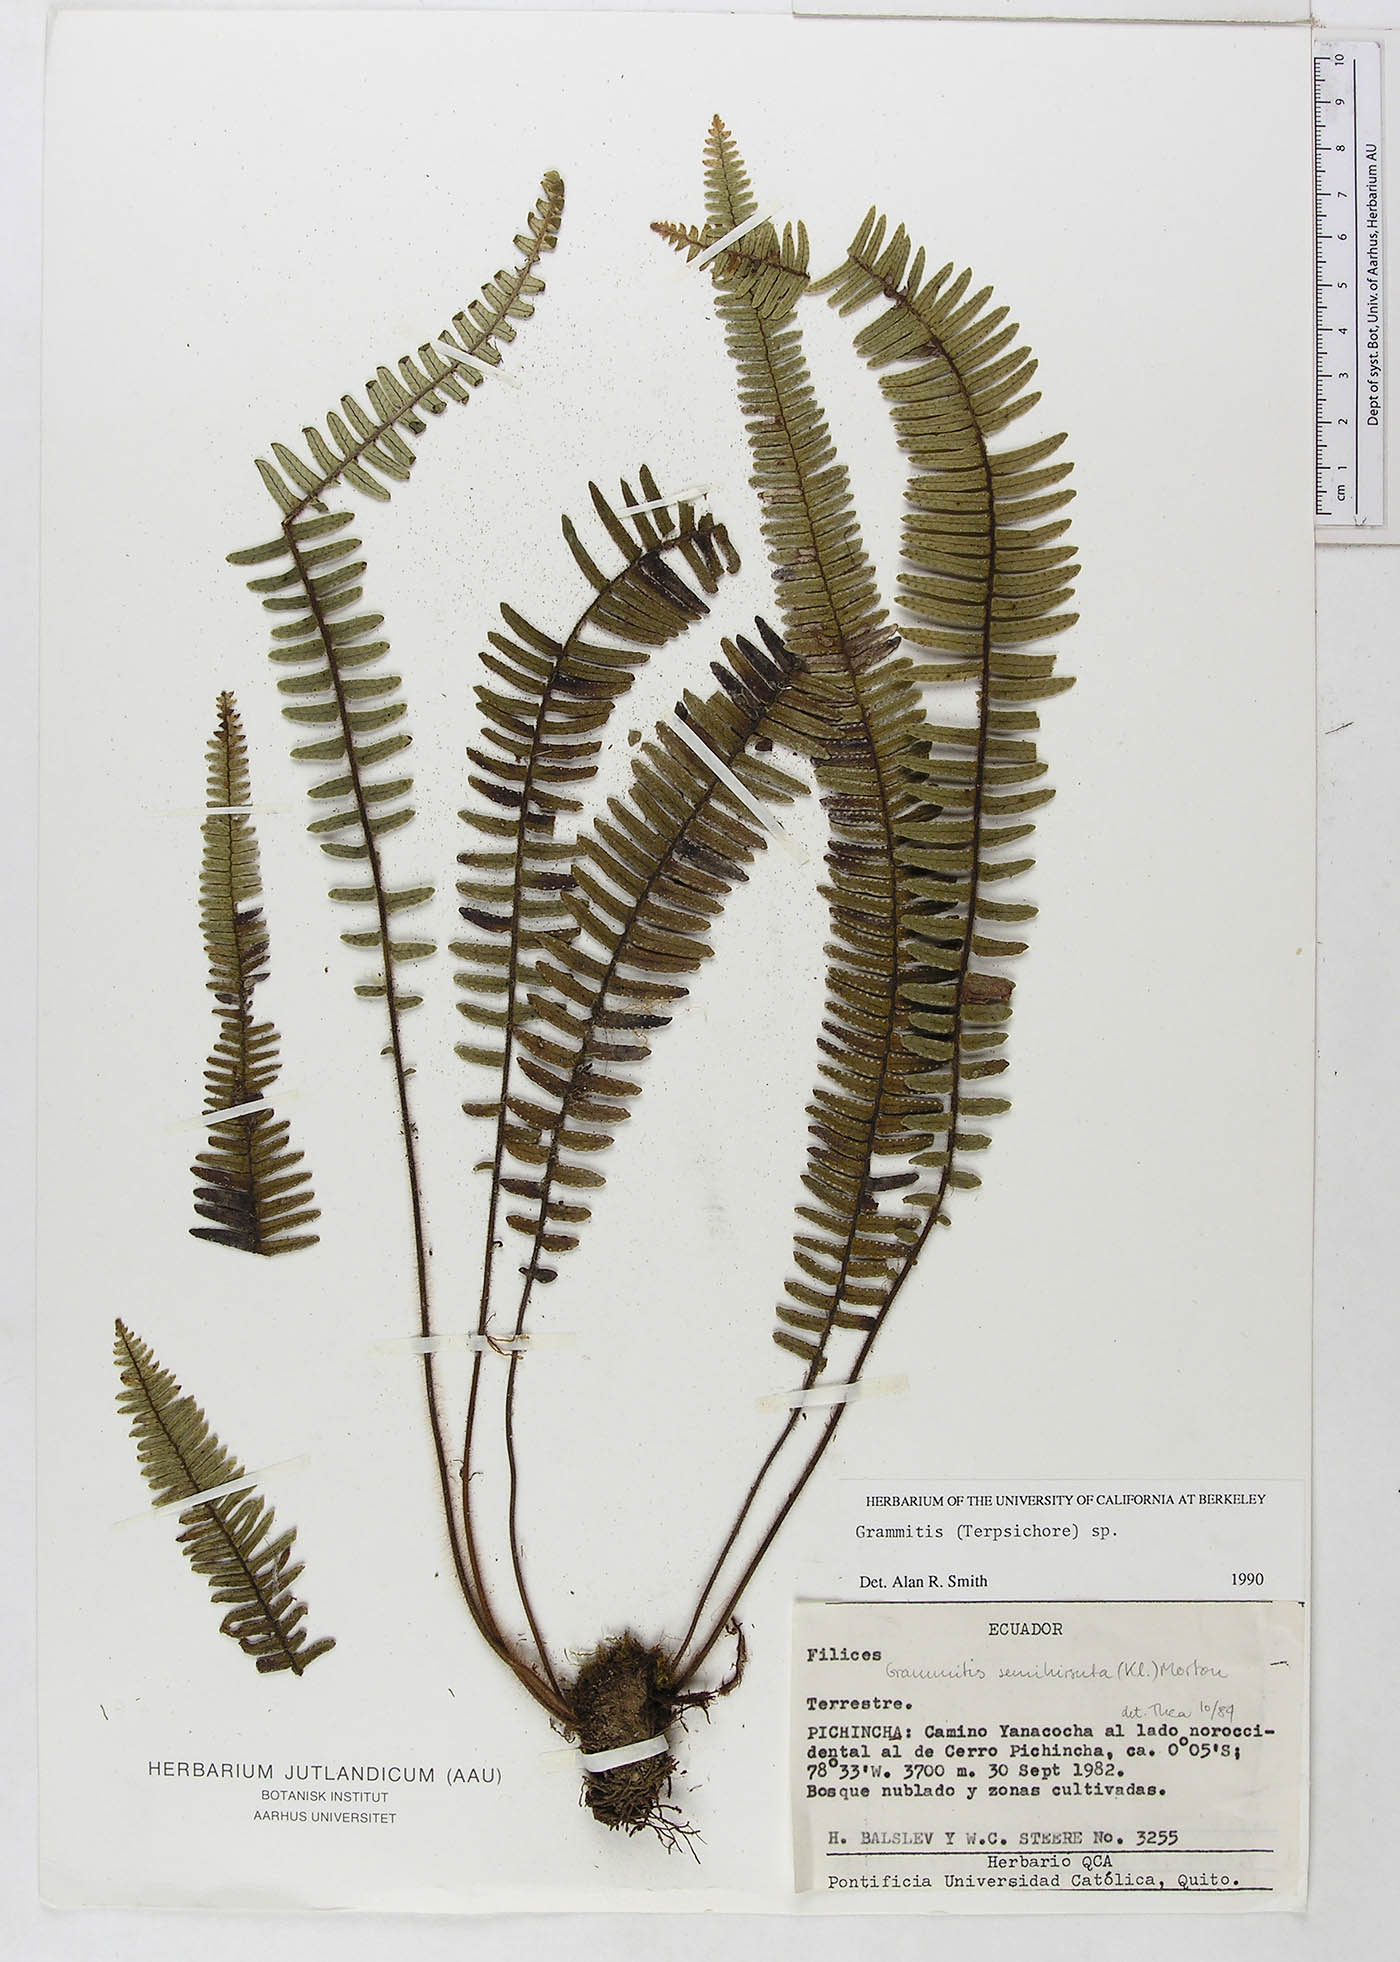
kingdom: Plantae
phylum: Tracheophyta
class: Polypodiopsida
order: Polypodiales
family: Polypodiaceae
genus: Mycopteris
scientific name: Mycopteris semihirsuta
